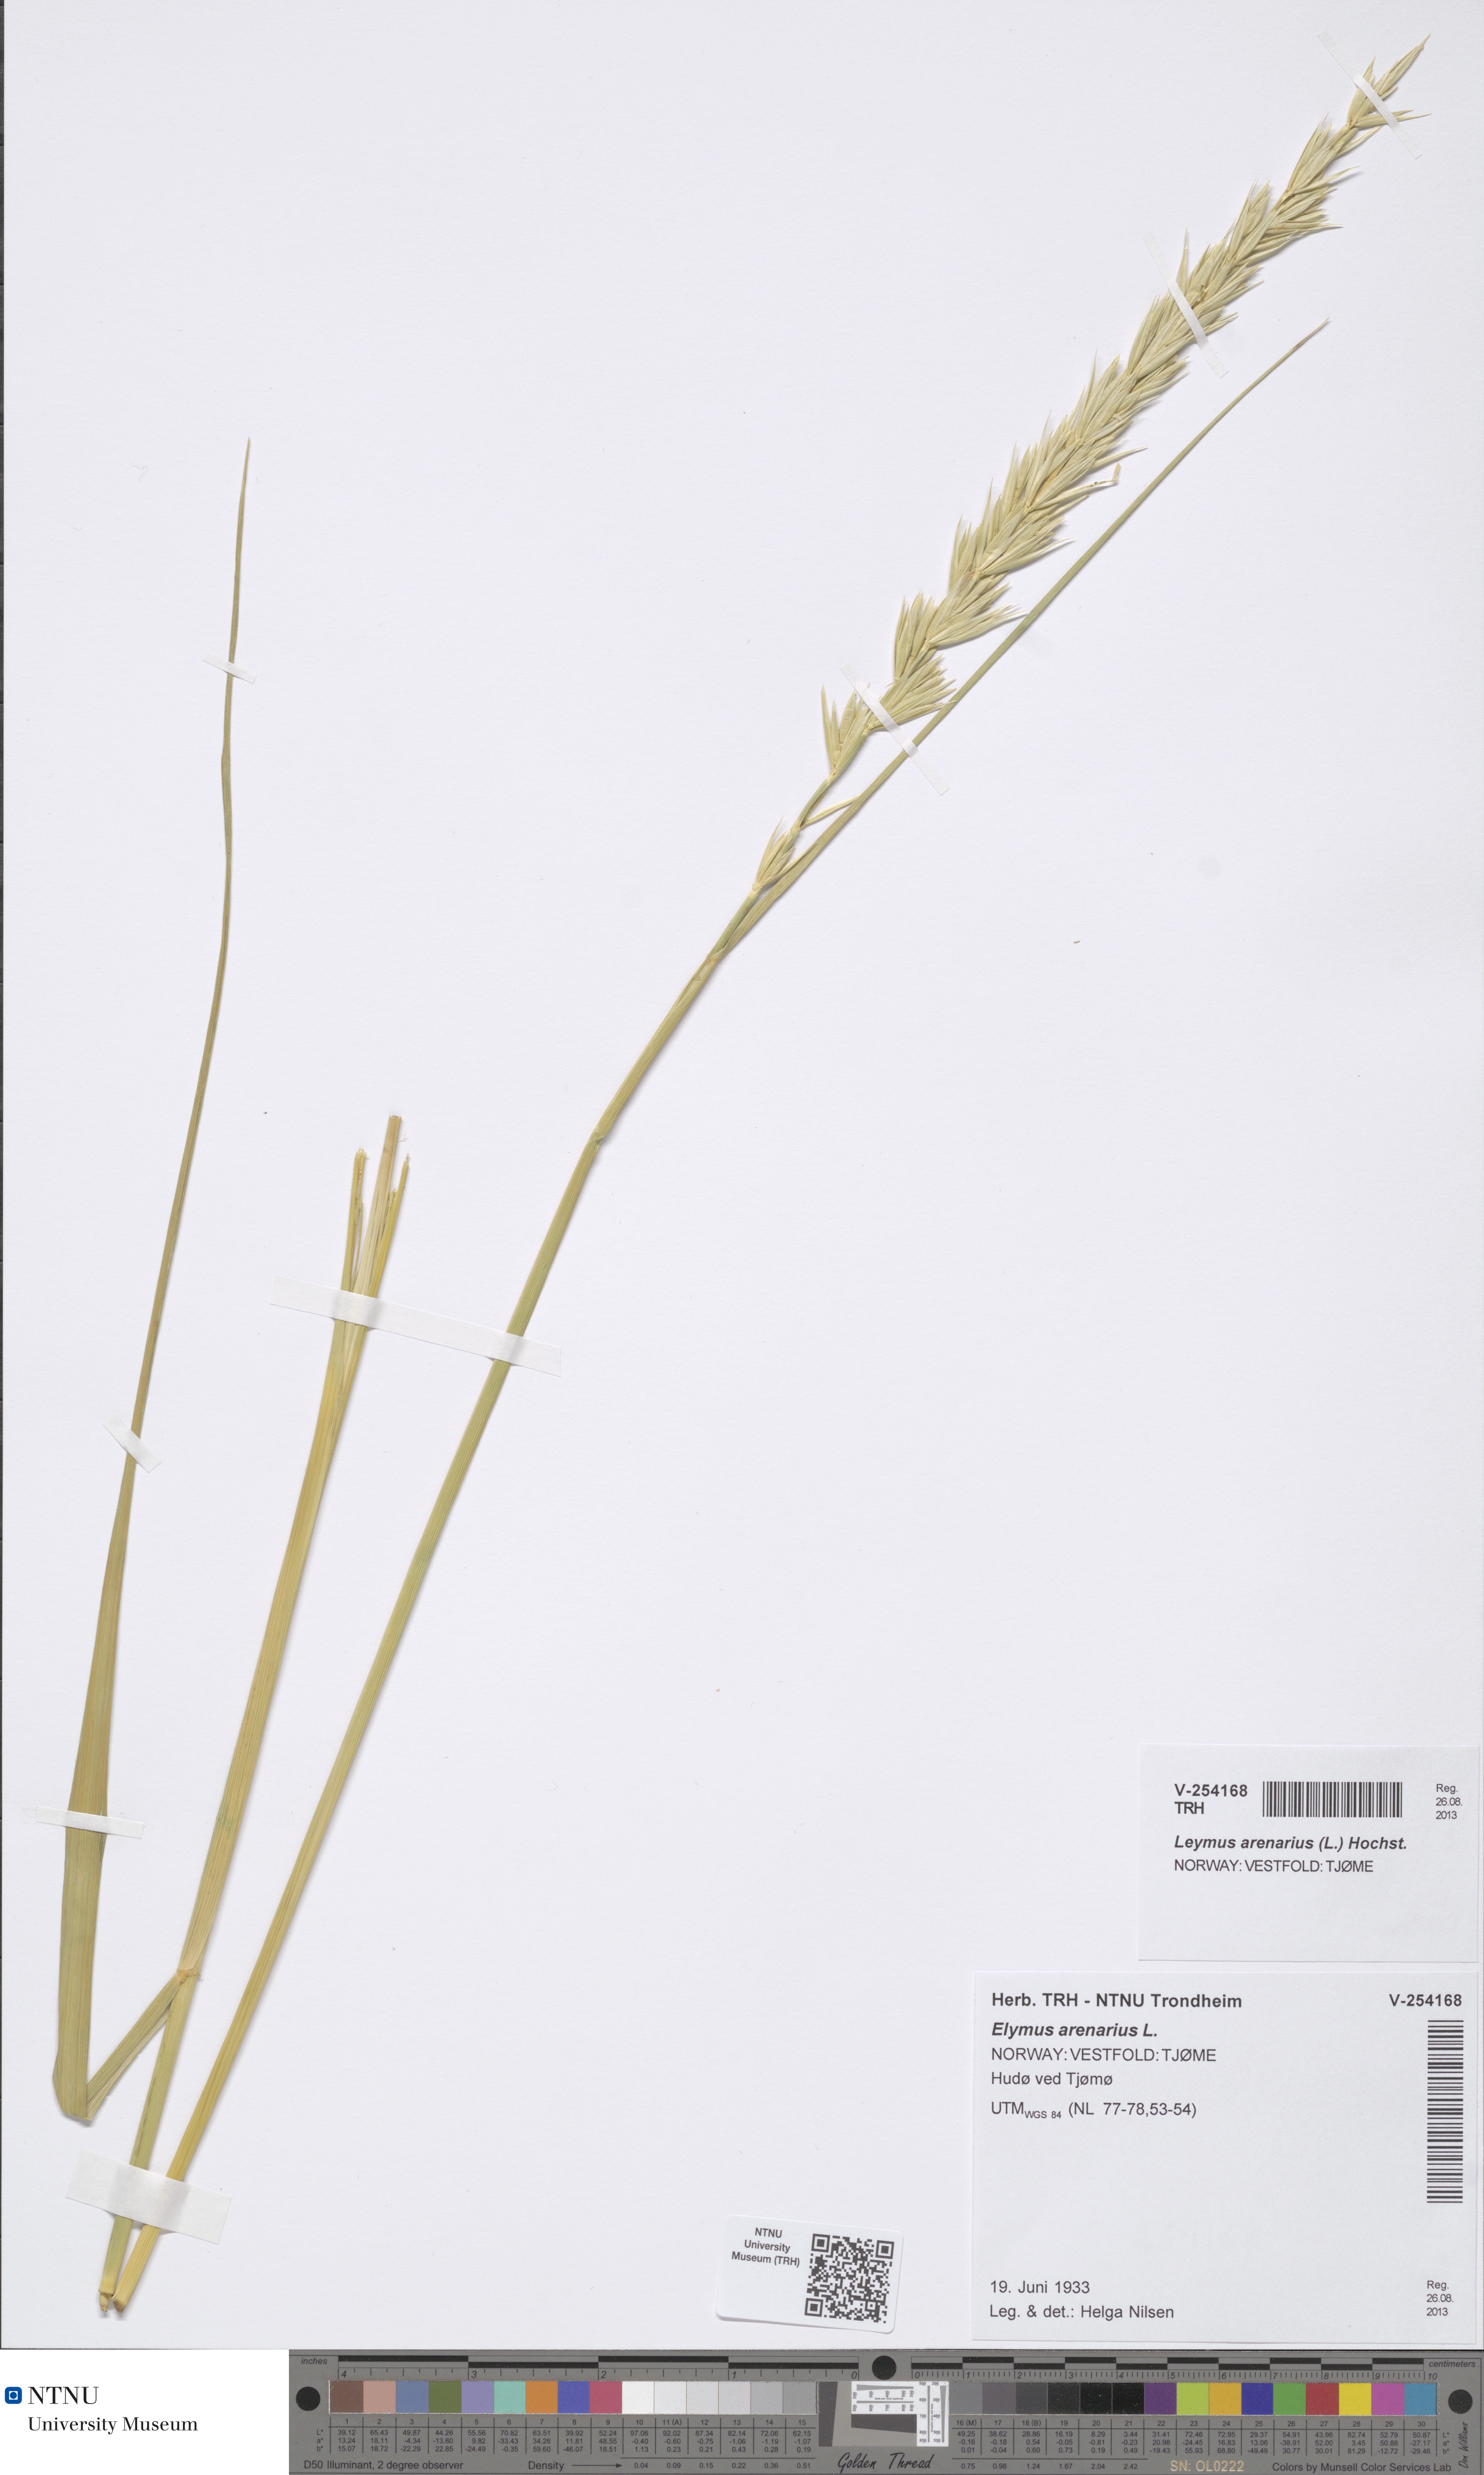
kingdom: Plantae
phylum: Tracheophyta
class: Liliopsida
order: Poales
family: Poaceae
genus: Leymus
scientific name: Leymus arenarius
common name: Lyme-grass
